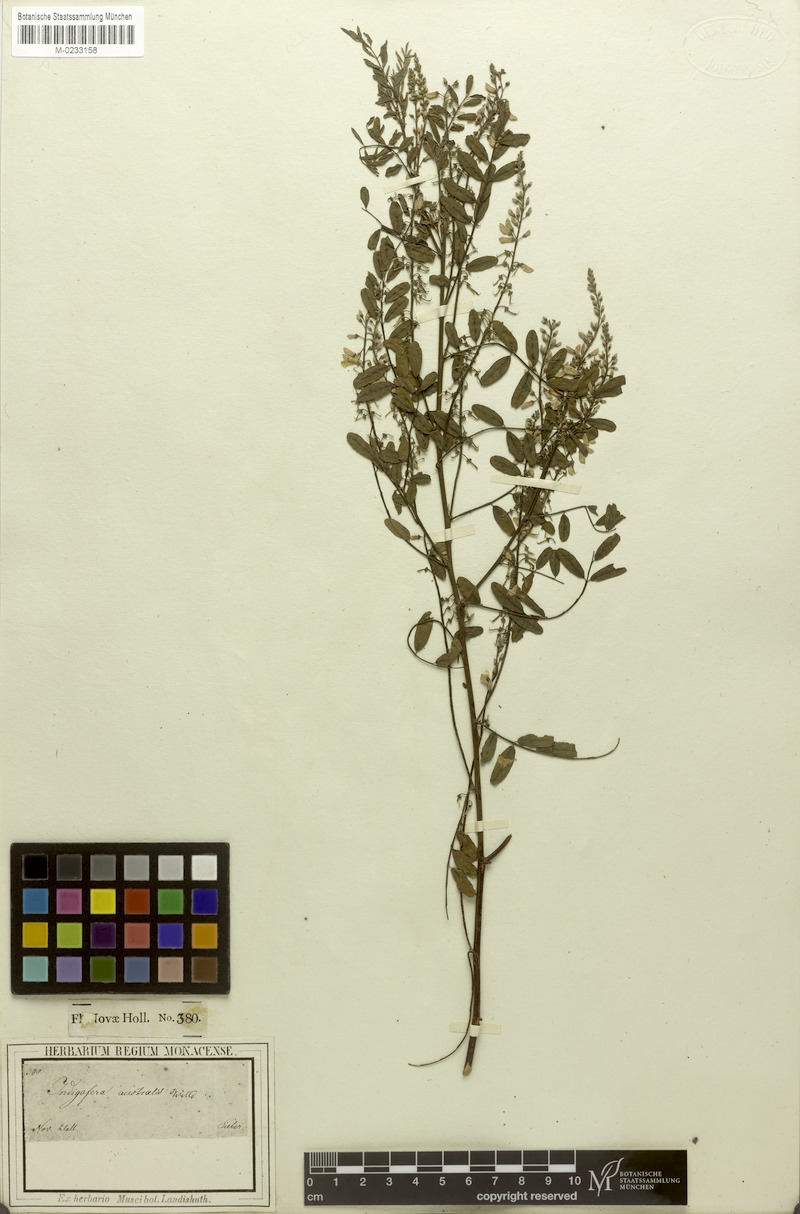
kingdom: Plantae
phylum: Tracheophyta
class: Magnoliopsida
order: Fabales
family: Fabaceae
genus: Indigofera
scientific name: Indigofera australis
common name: Australian indigo
